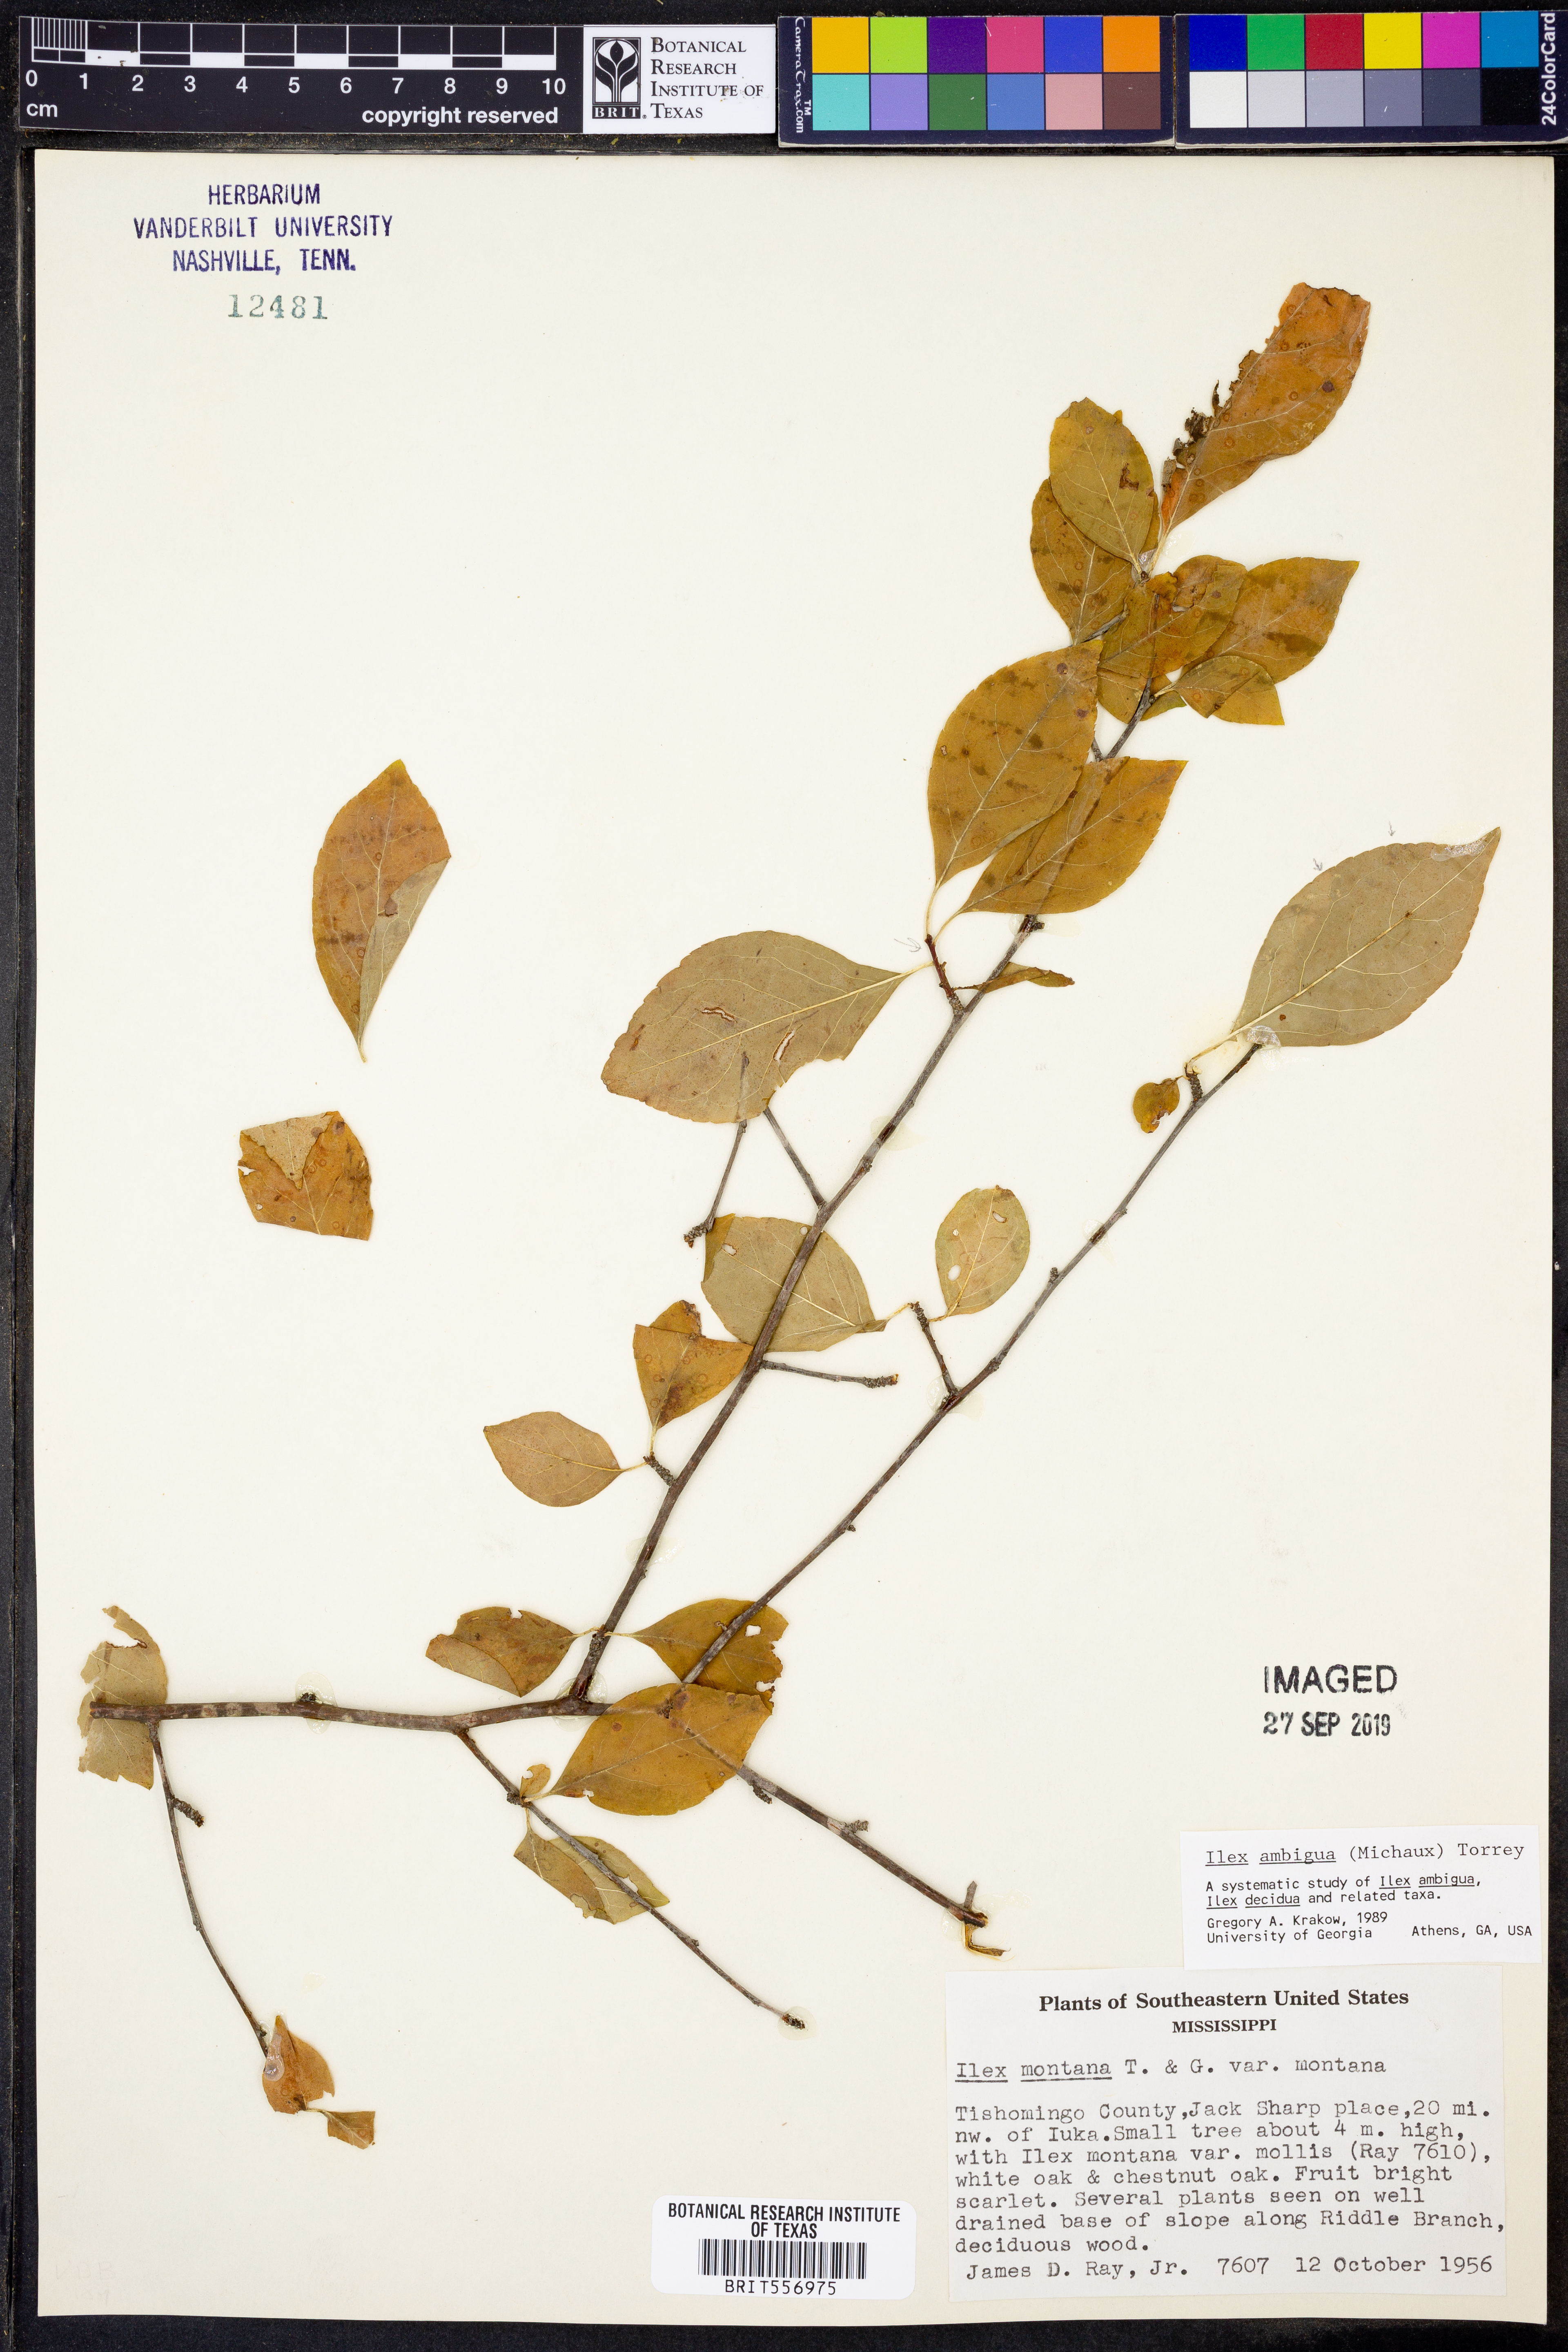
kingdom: Plantae
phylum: Tracheophyta
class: Magnoliopsida
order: Aquifoliales
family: Aquifoliaceae
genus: Ilex
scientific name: Ilex ambigua
